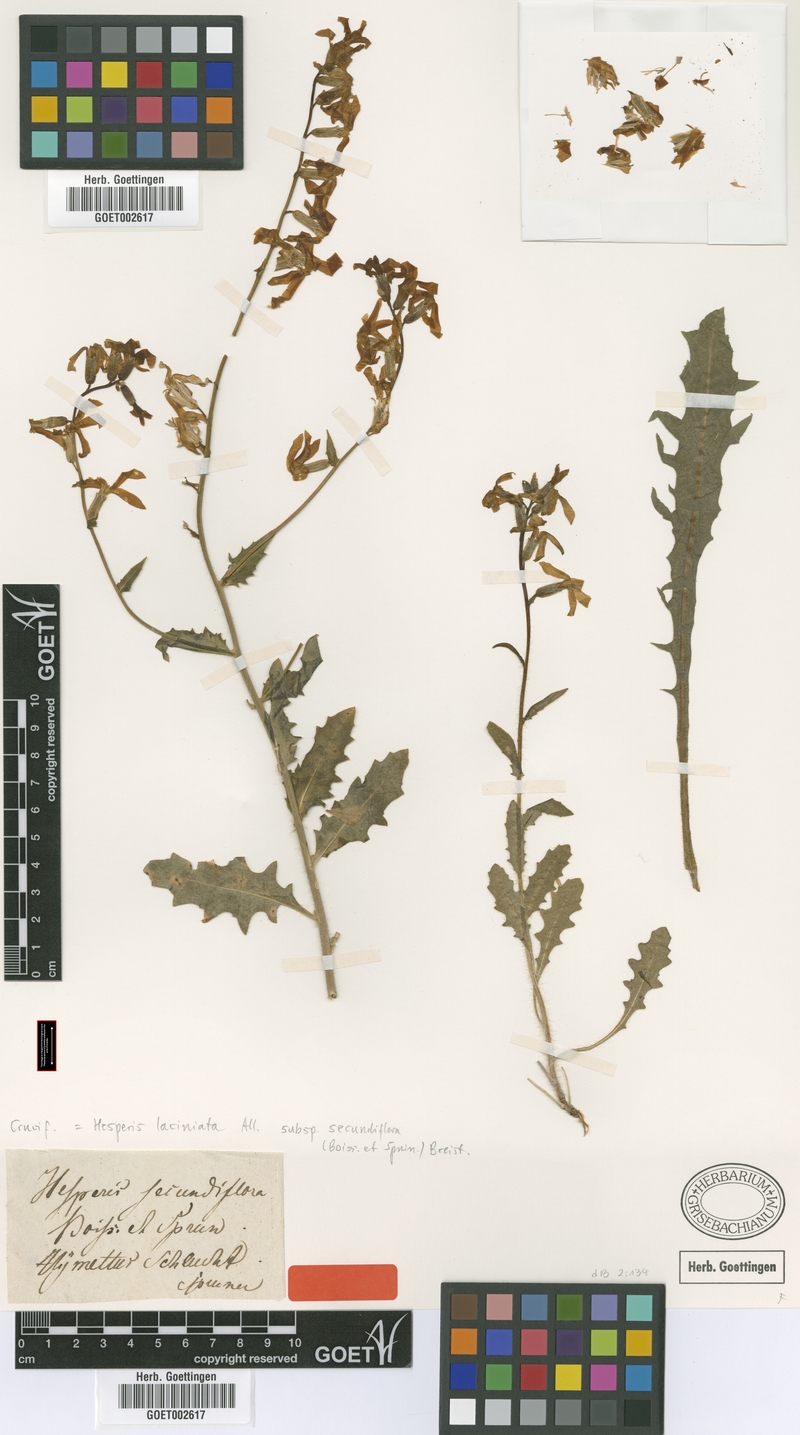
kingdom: Plantae
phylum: Tracheophyta
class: Magnoliopsida
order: Brassicales
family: Brassicaceae
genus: Hesperis
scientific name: Hesperis laciniata
